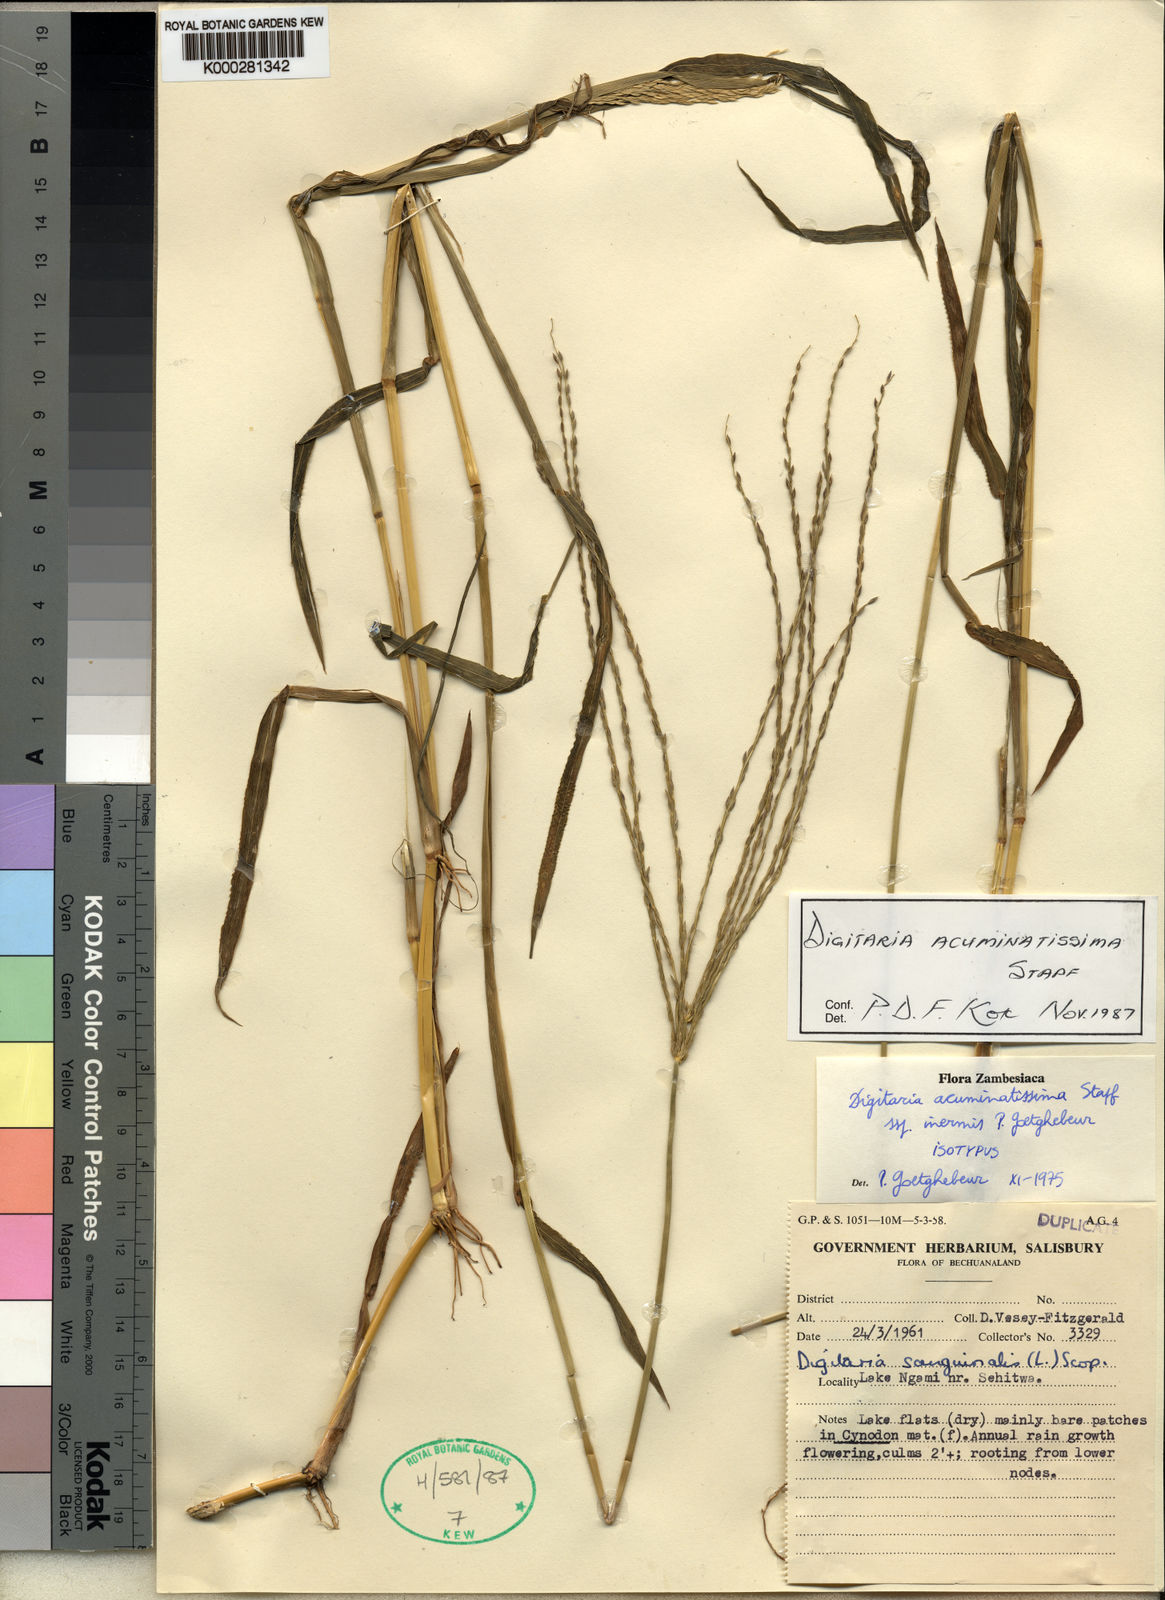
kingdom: Plantae
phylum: Tracheophyta
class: Liliopsida
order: Poales
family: Poaceae
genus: Digitaria
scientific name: Digitaria acuminatissima
